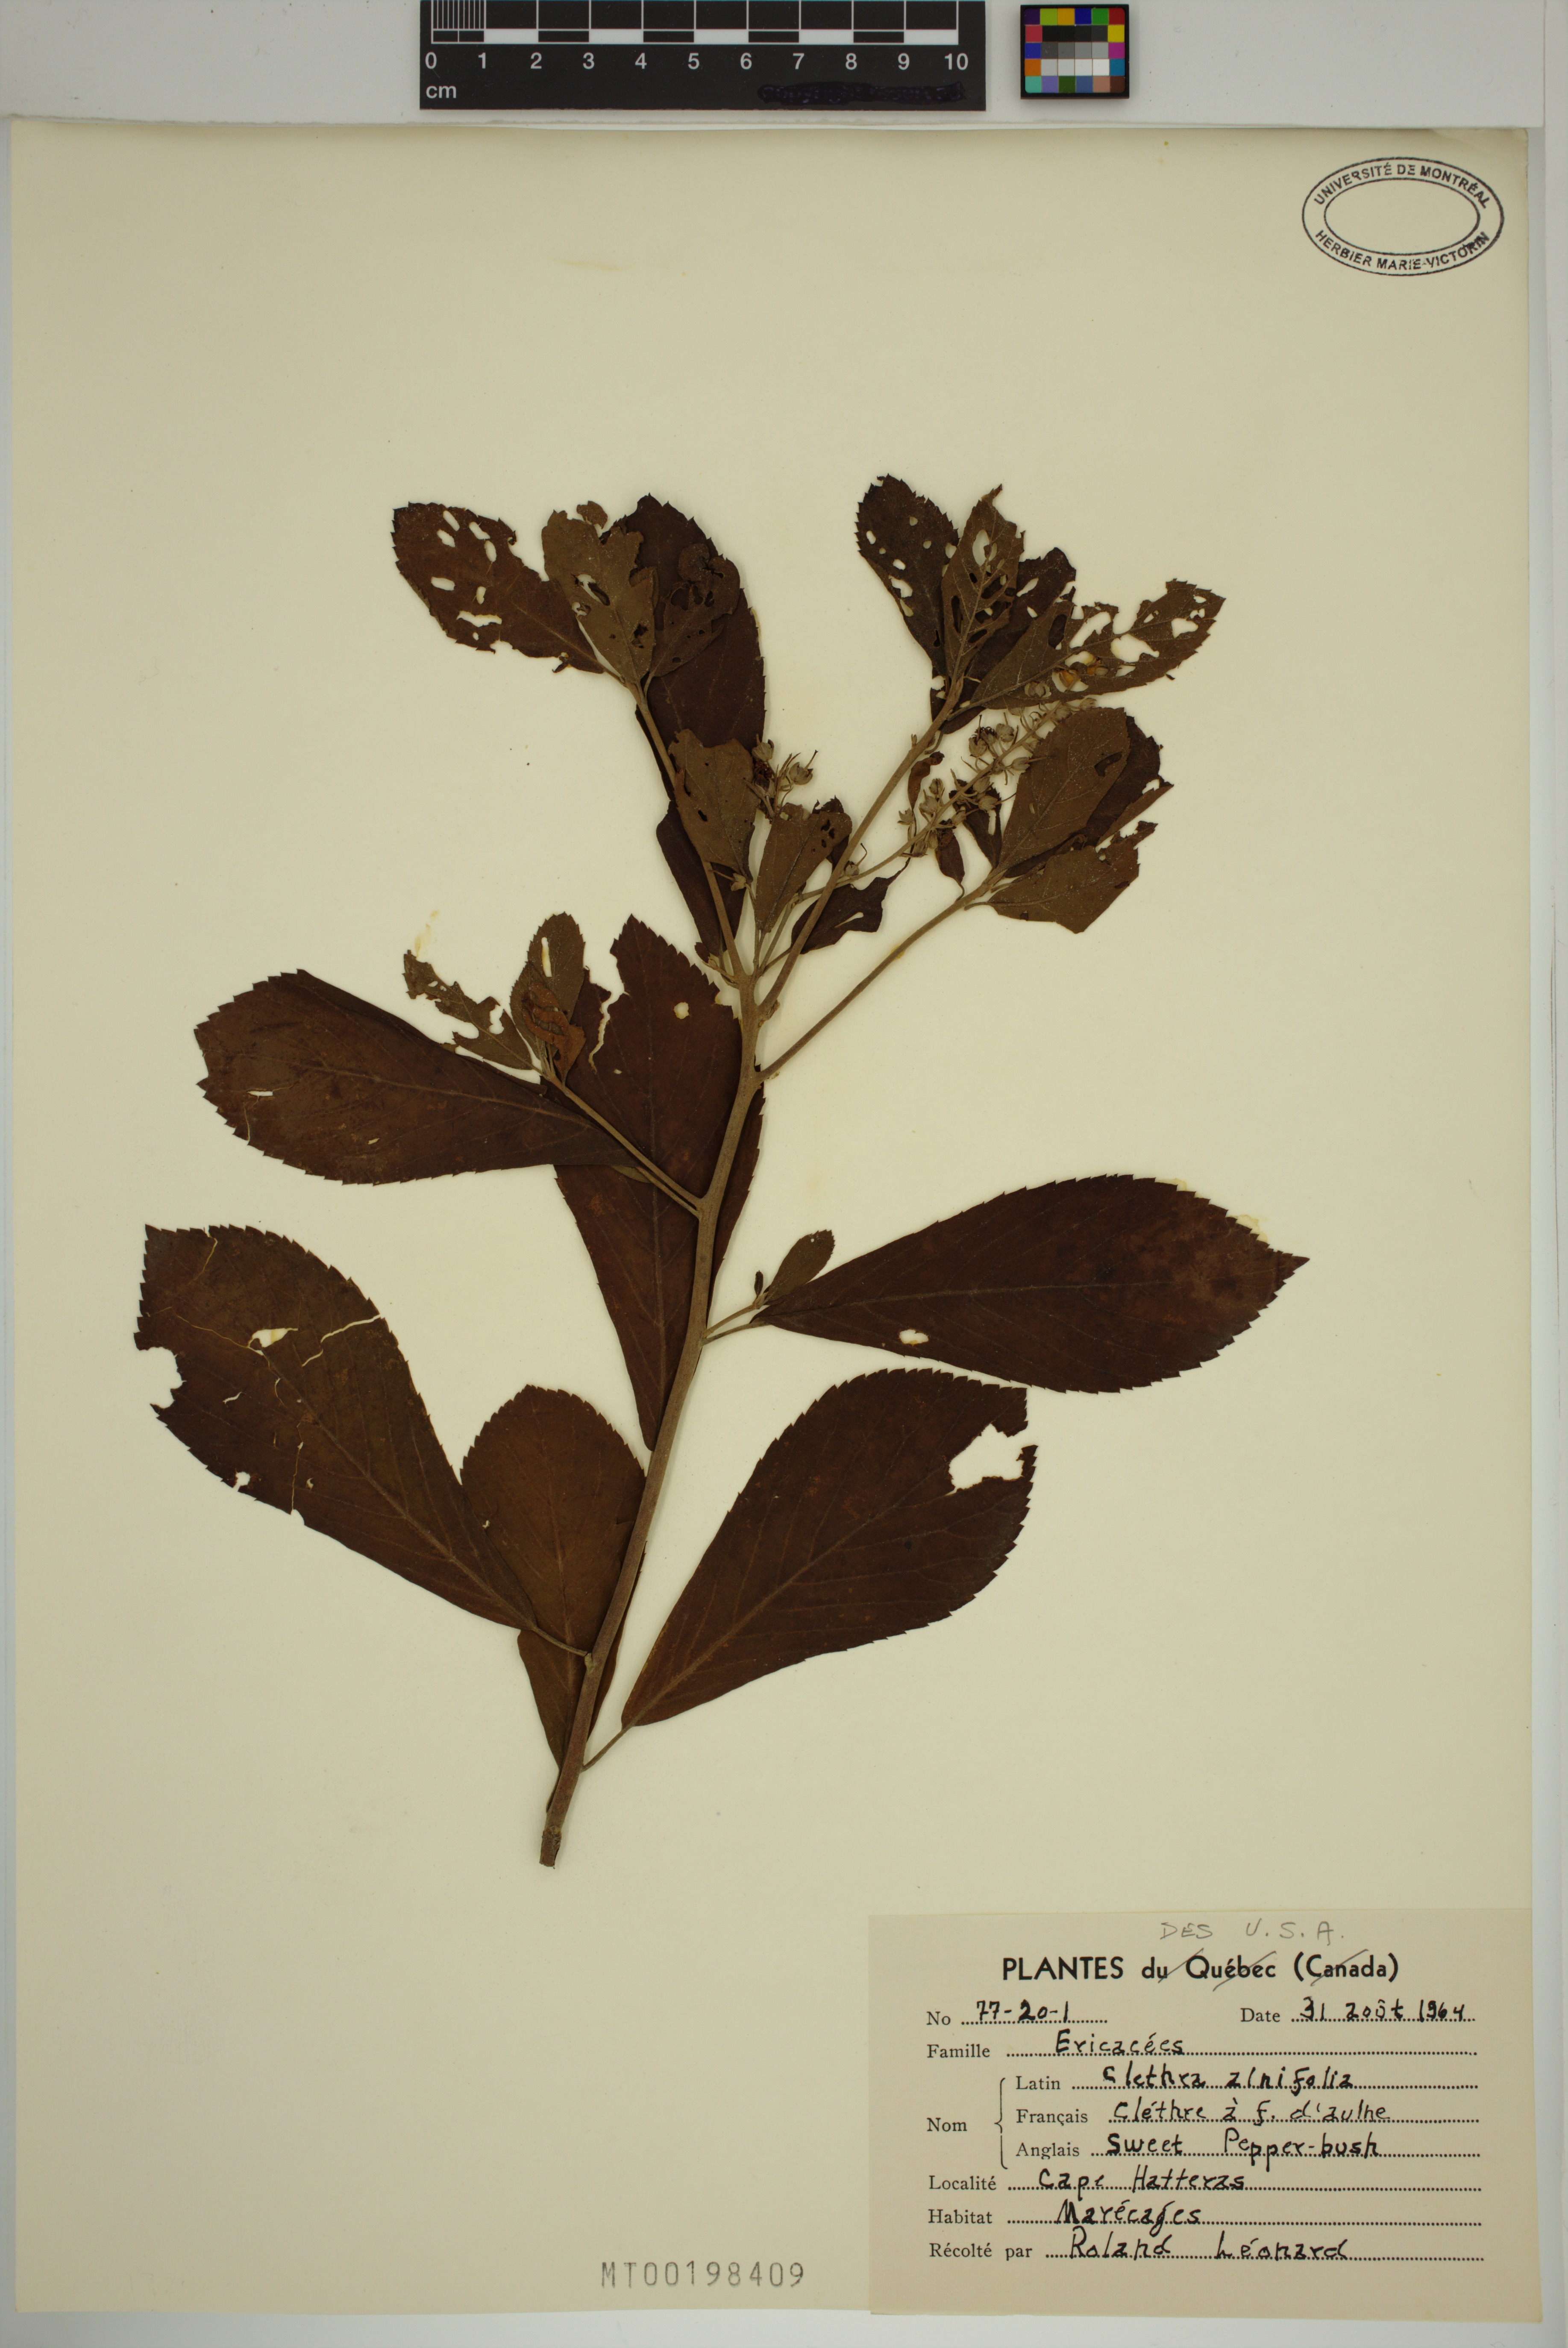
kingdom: Plantae
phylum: Tracheophyta
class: Magnoliopsida
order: Ericales
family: Clethraceae
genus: Clethra
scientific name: Clethra alnifolia
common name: Sweet pepperbush
